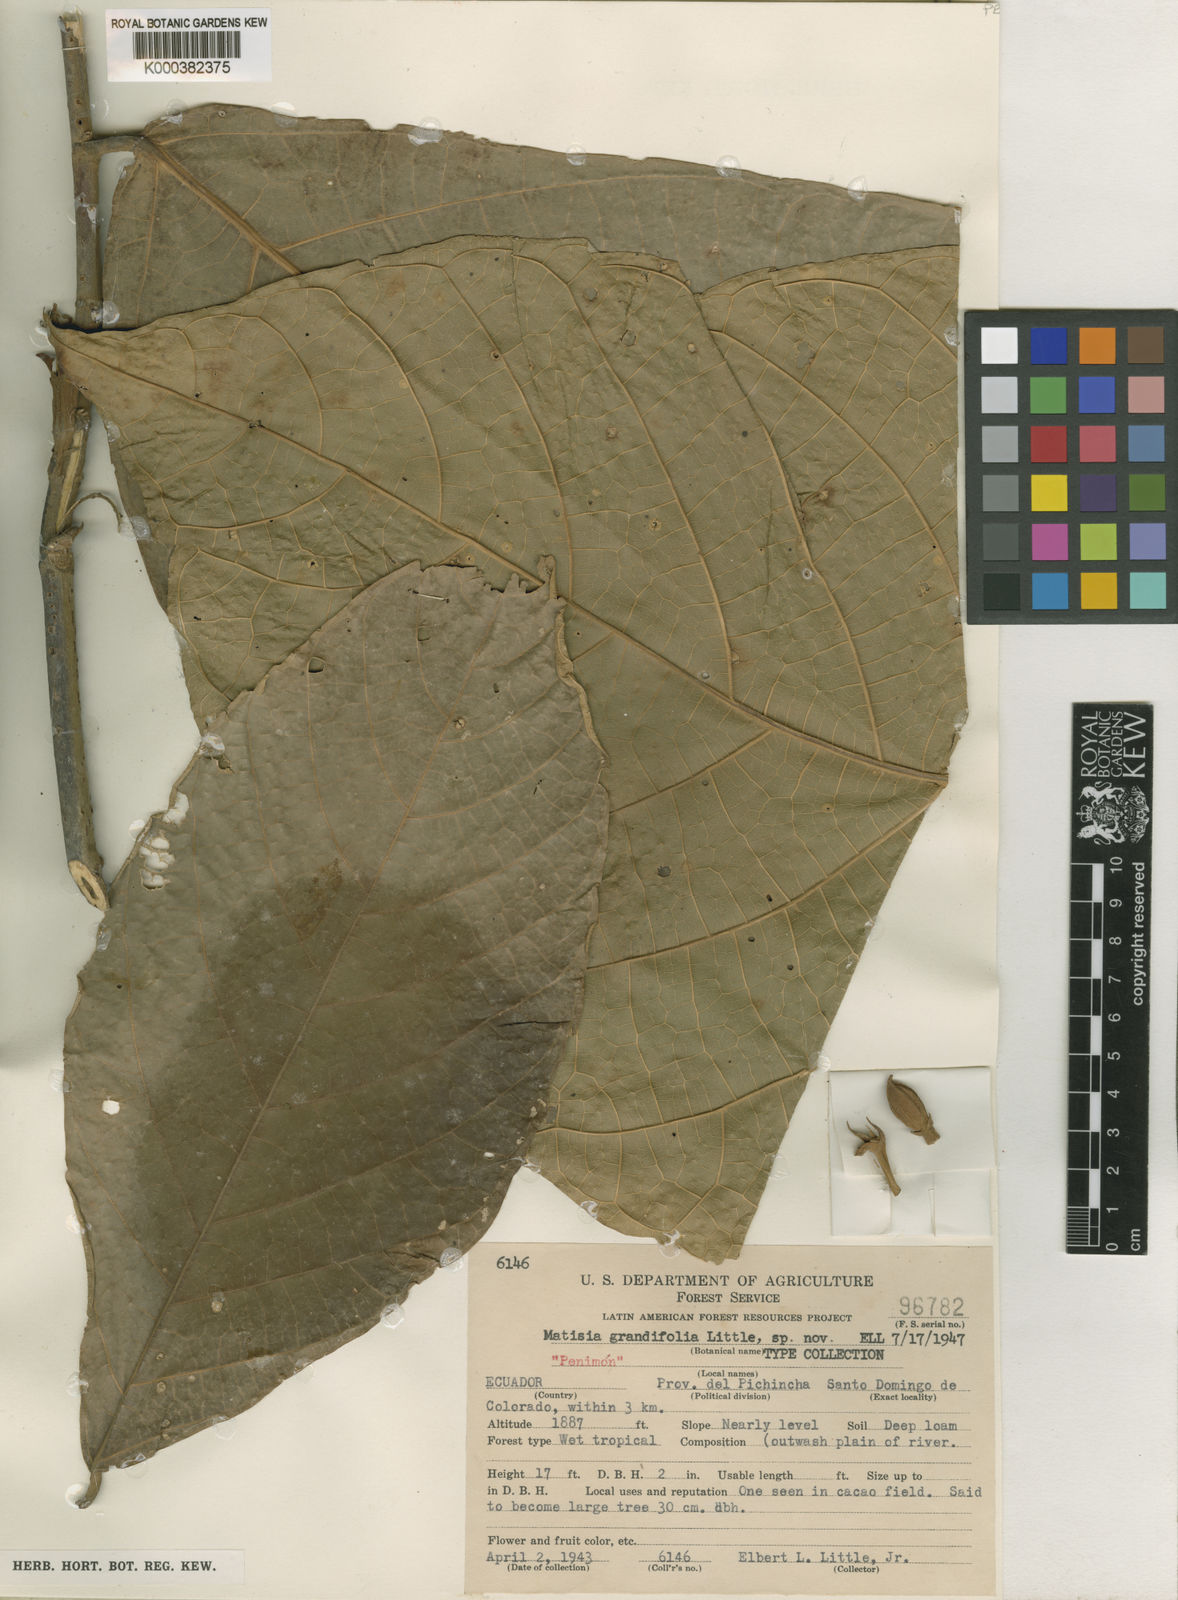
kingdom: Plantae
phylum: Tracheophyta
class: Magnoliopsida
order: Malvales
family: Malvaceae
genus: Quararibea
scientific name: Quararibea grandifolia
